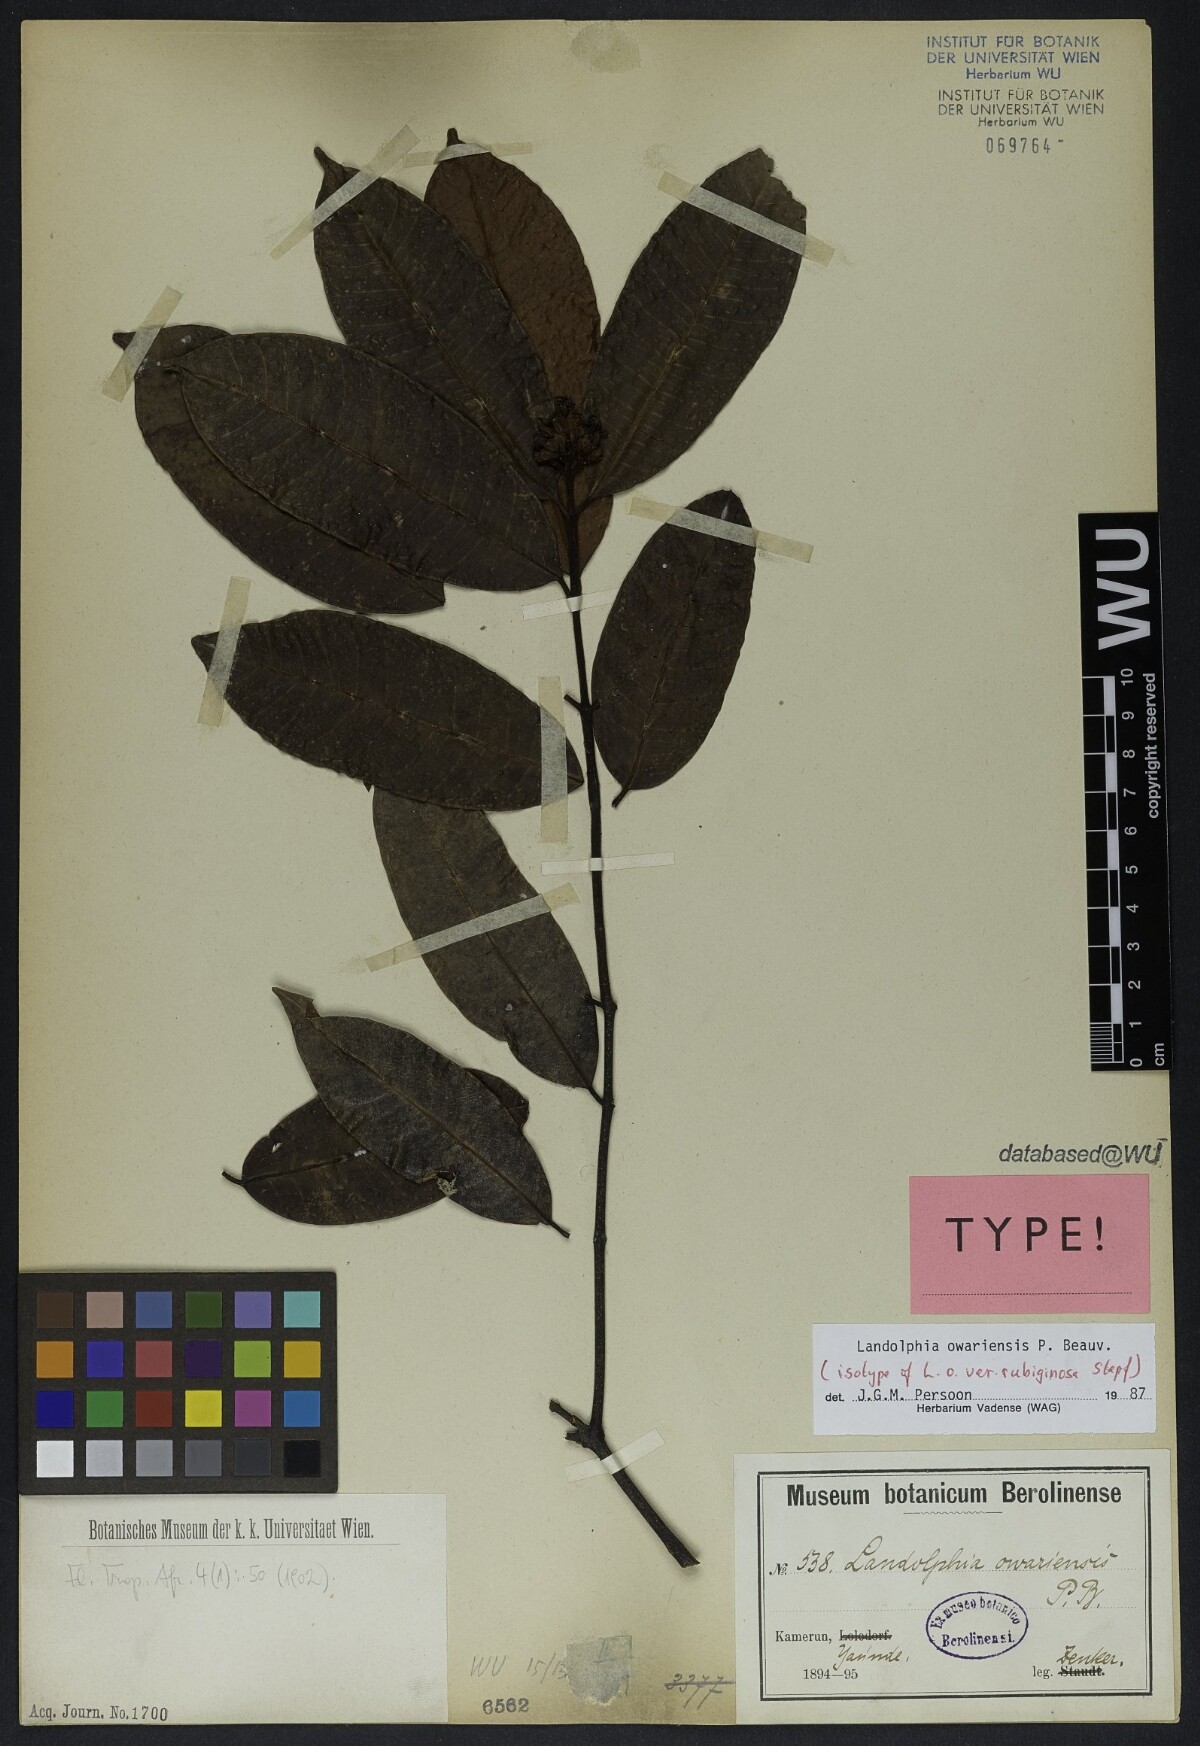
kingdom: Plantae
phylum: Tracheophyta
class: Magnoliopsida
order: Gentianales
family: Apocynaceae
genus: Landolphia
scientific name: Landolphia owariensis
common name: White-ball-rubber
